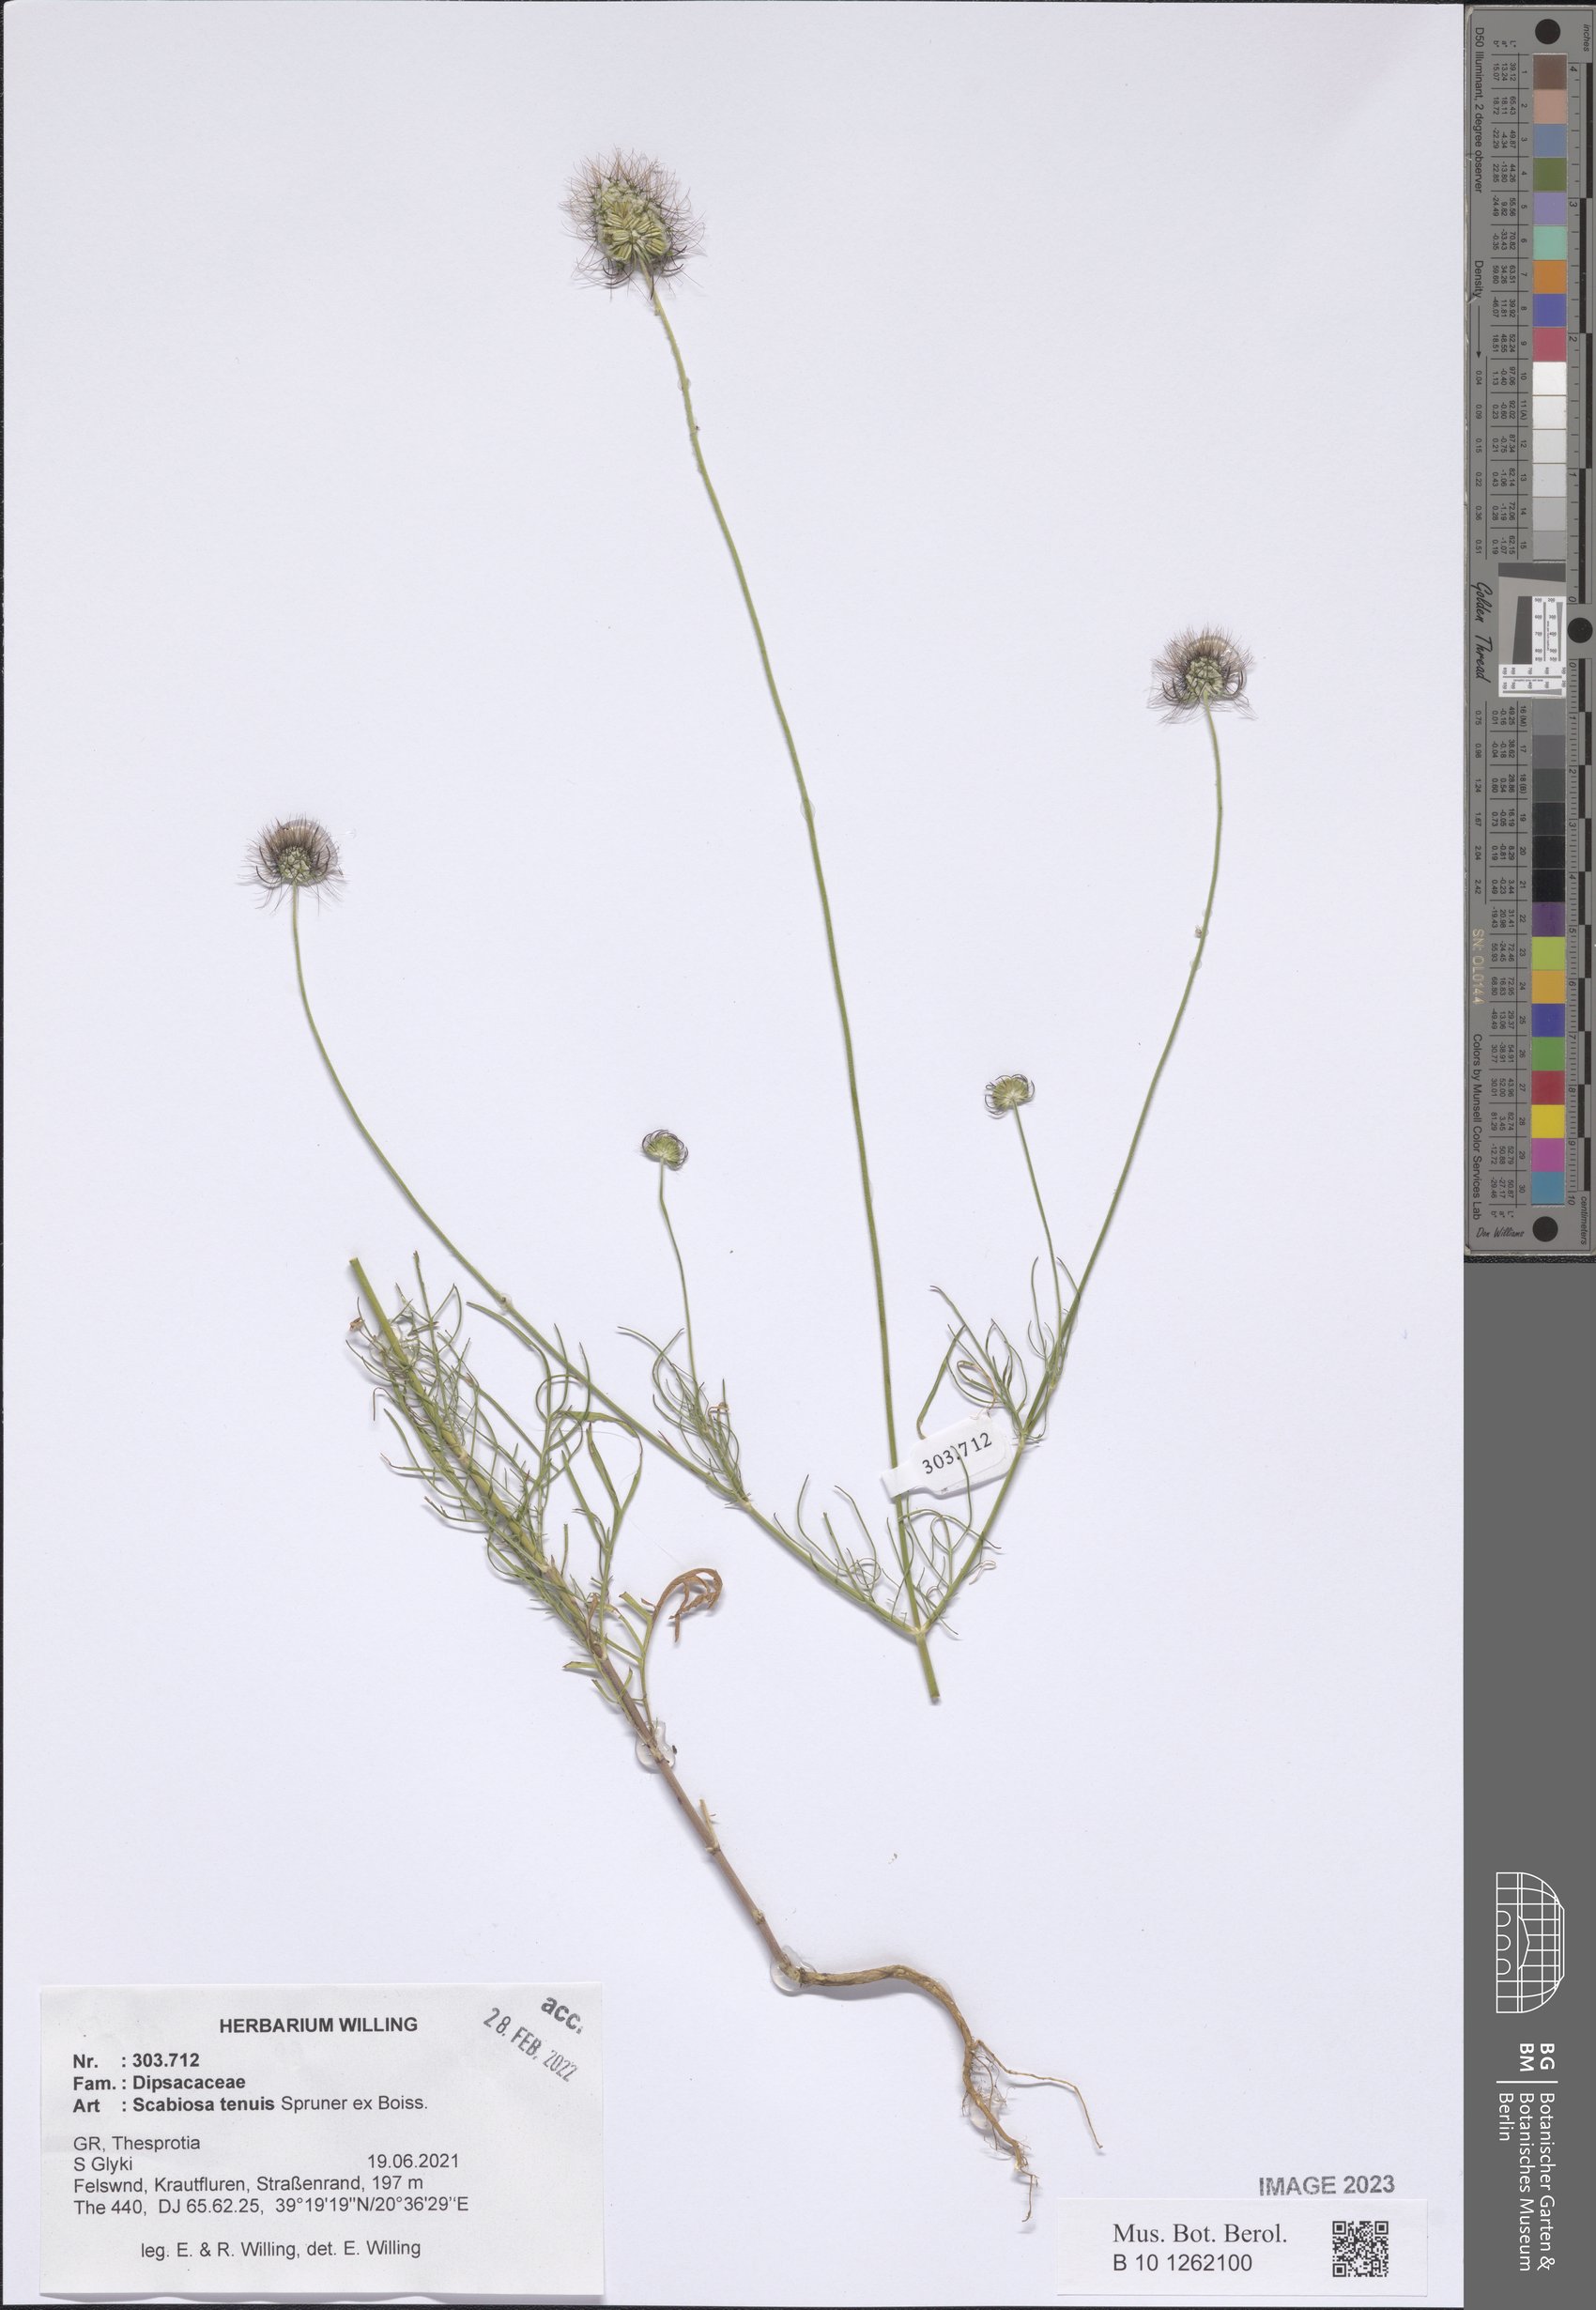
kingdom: Plantae
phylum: Tracheophyta
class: Magnoliopsida
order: Dipsacales
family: Caprifoliaceae
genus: Scabiosa
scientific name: Scabiosa tenuis
